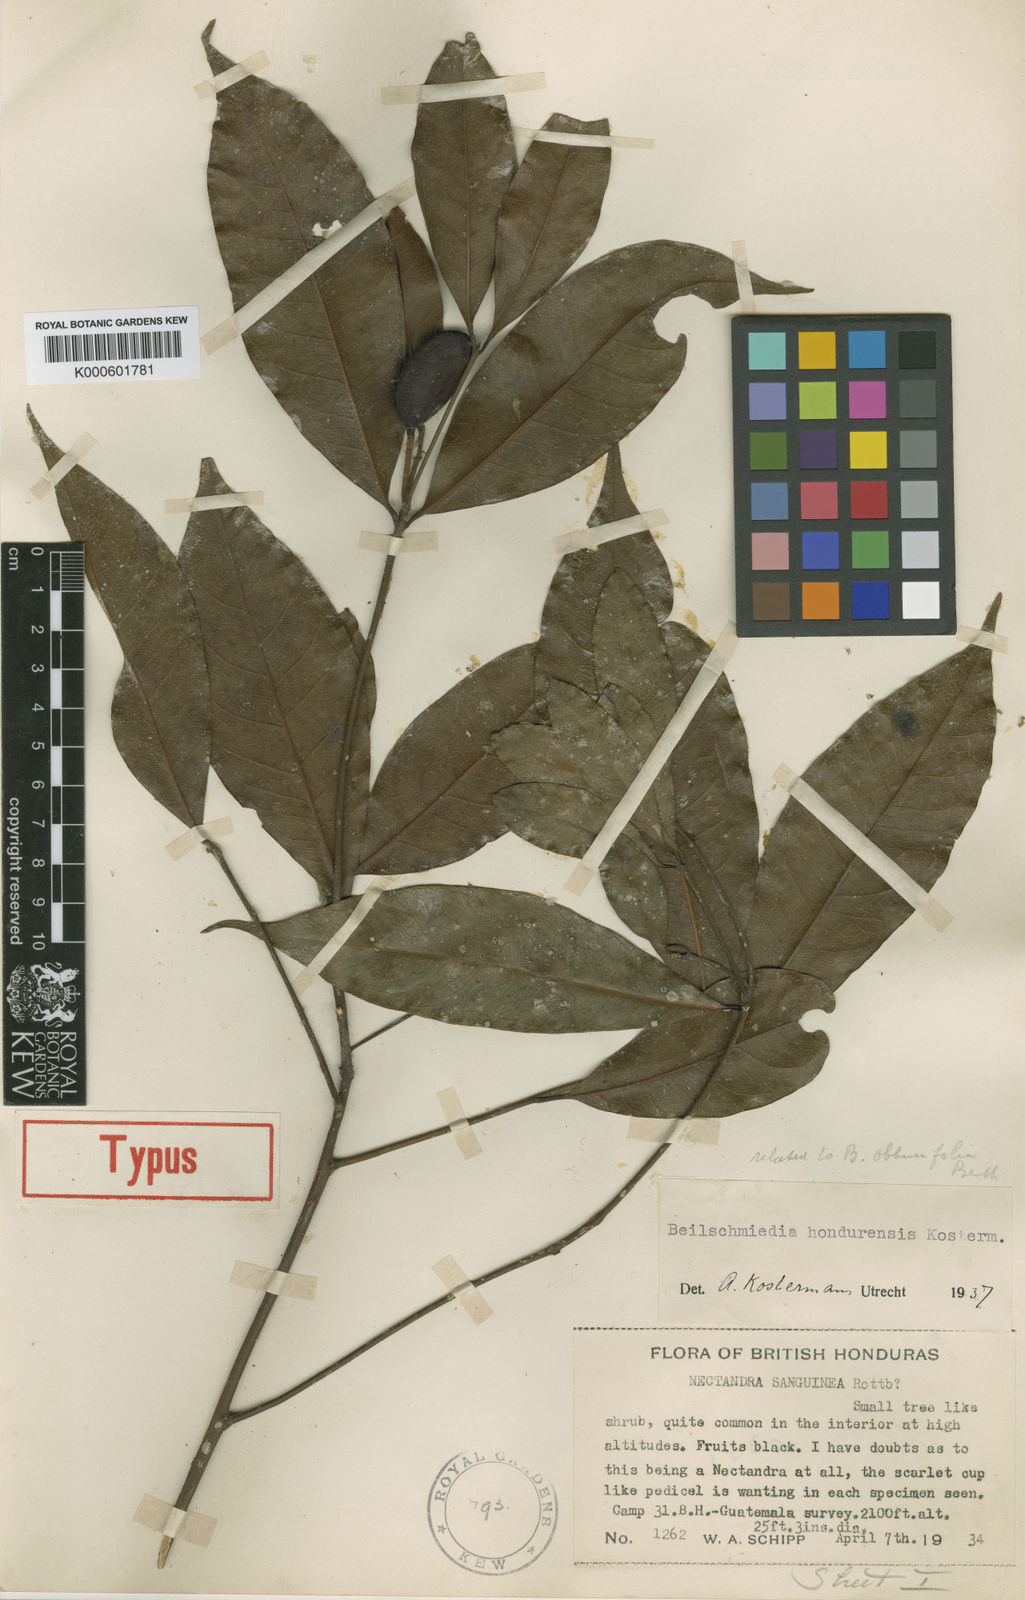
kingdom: Plantae
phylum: Tracheophyta
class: Magnoliopsida
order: Laurales
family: Lauraceae
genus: Beilschmiedia
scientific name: Beilschmiedia hondurensis
